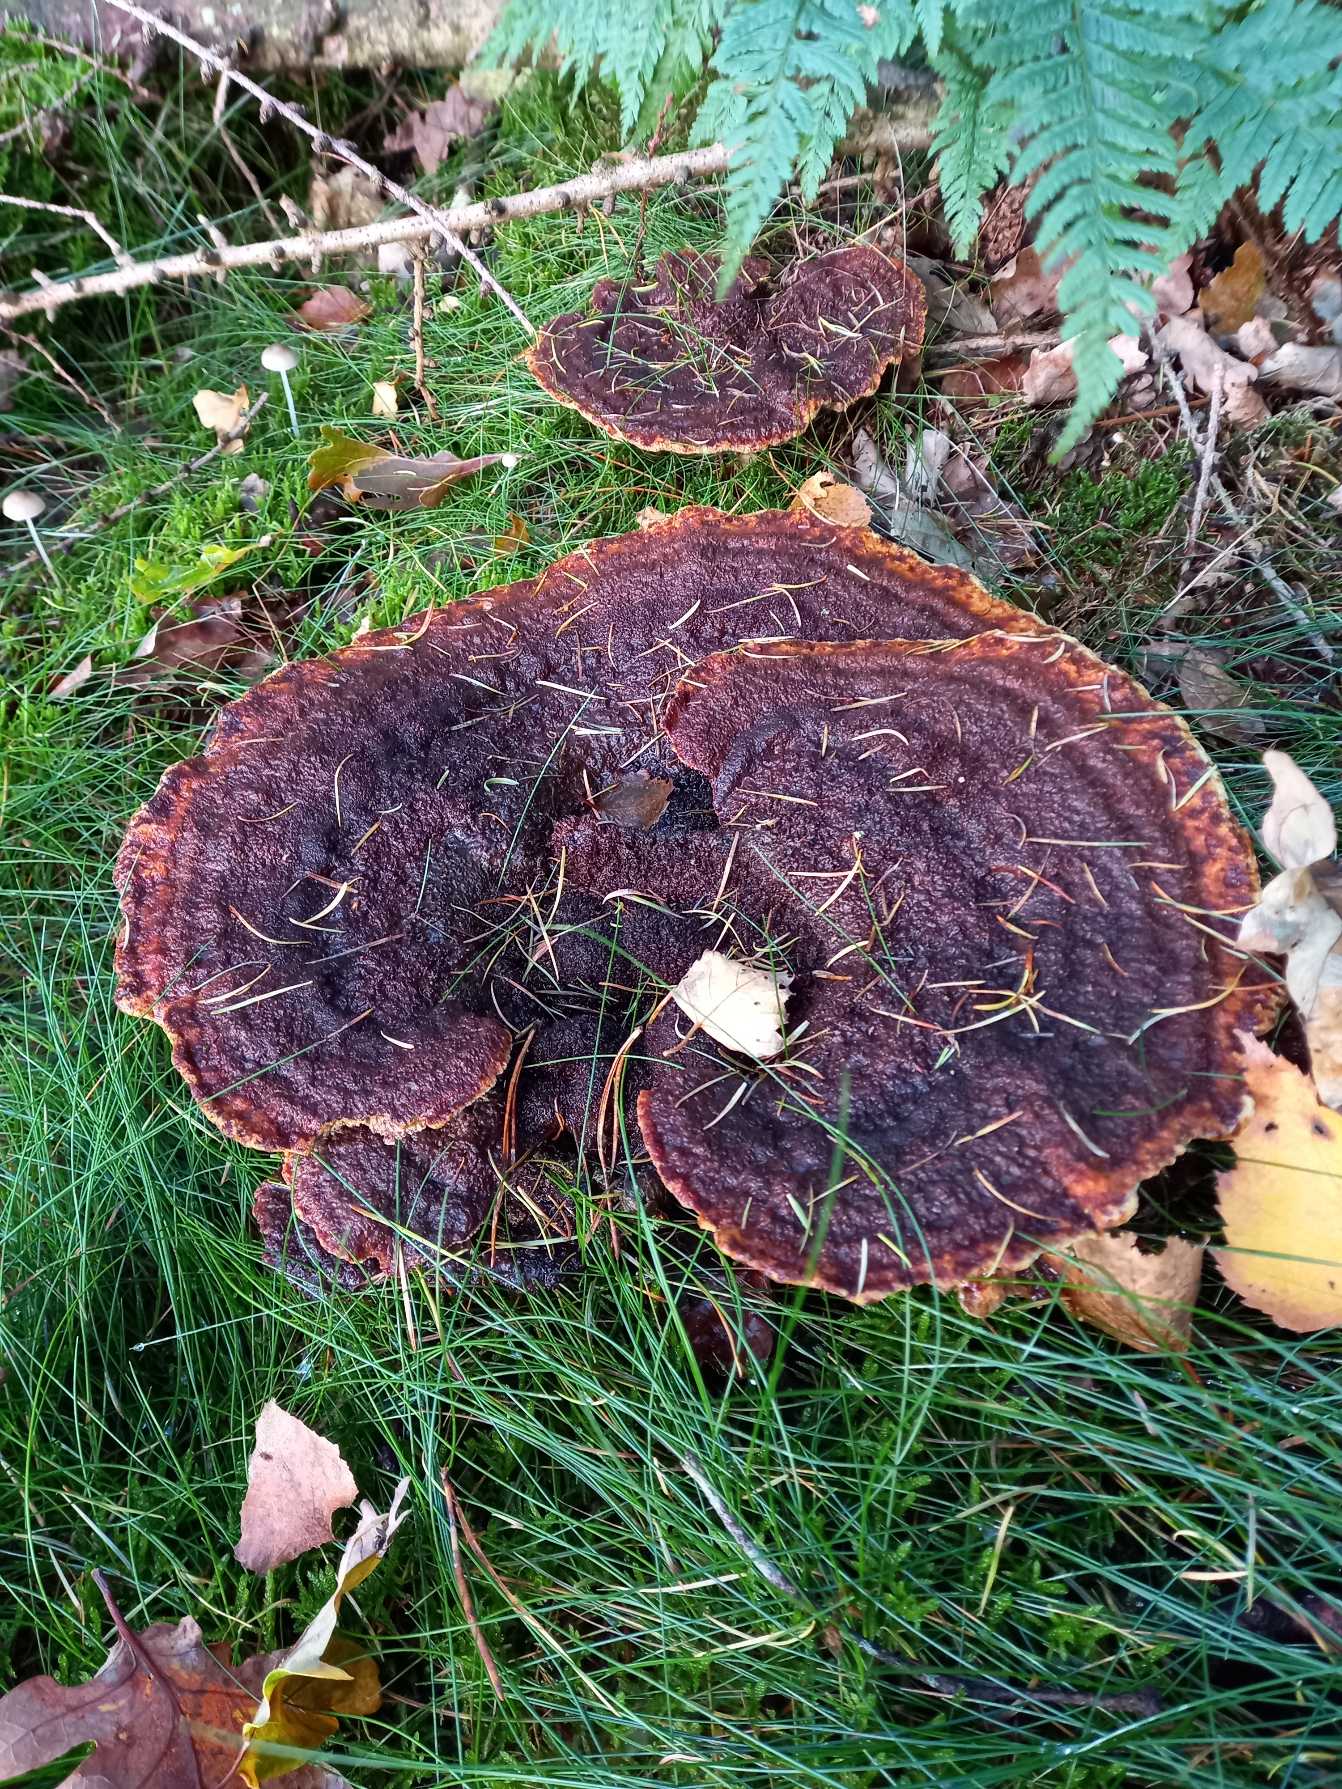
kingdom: Fungi
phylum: Basidiomycota
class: Agaricomycetes
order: Polyporales
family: Laetiporaceae
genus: Phaeolus
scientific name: Phaeolus schweinitzii
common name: Brunporesvamp
